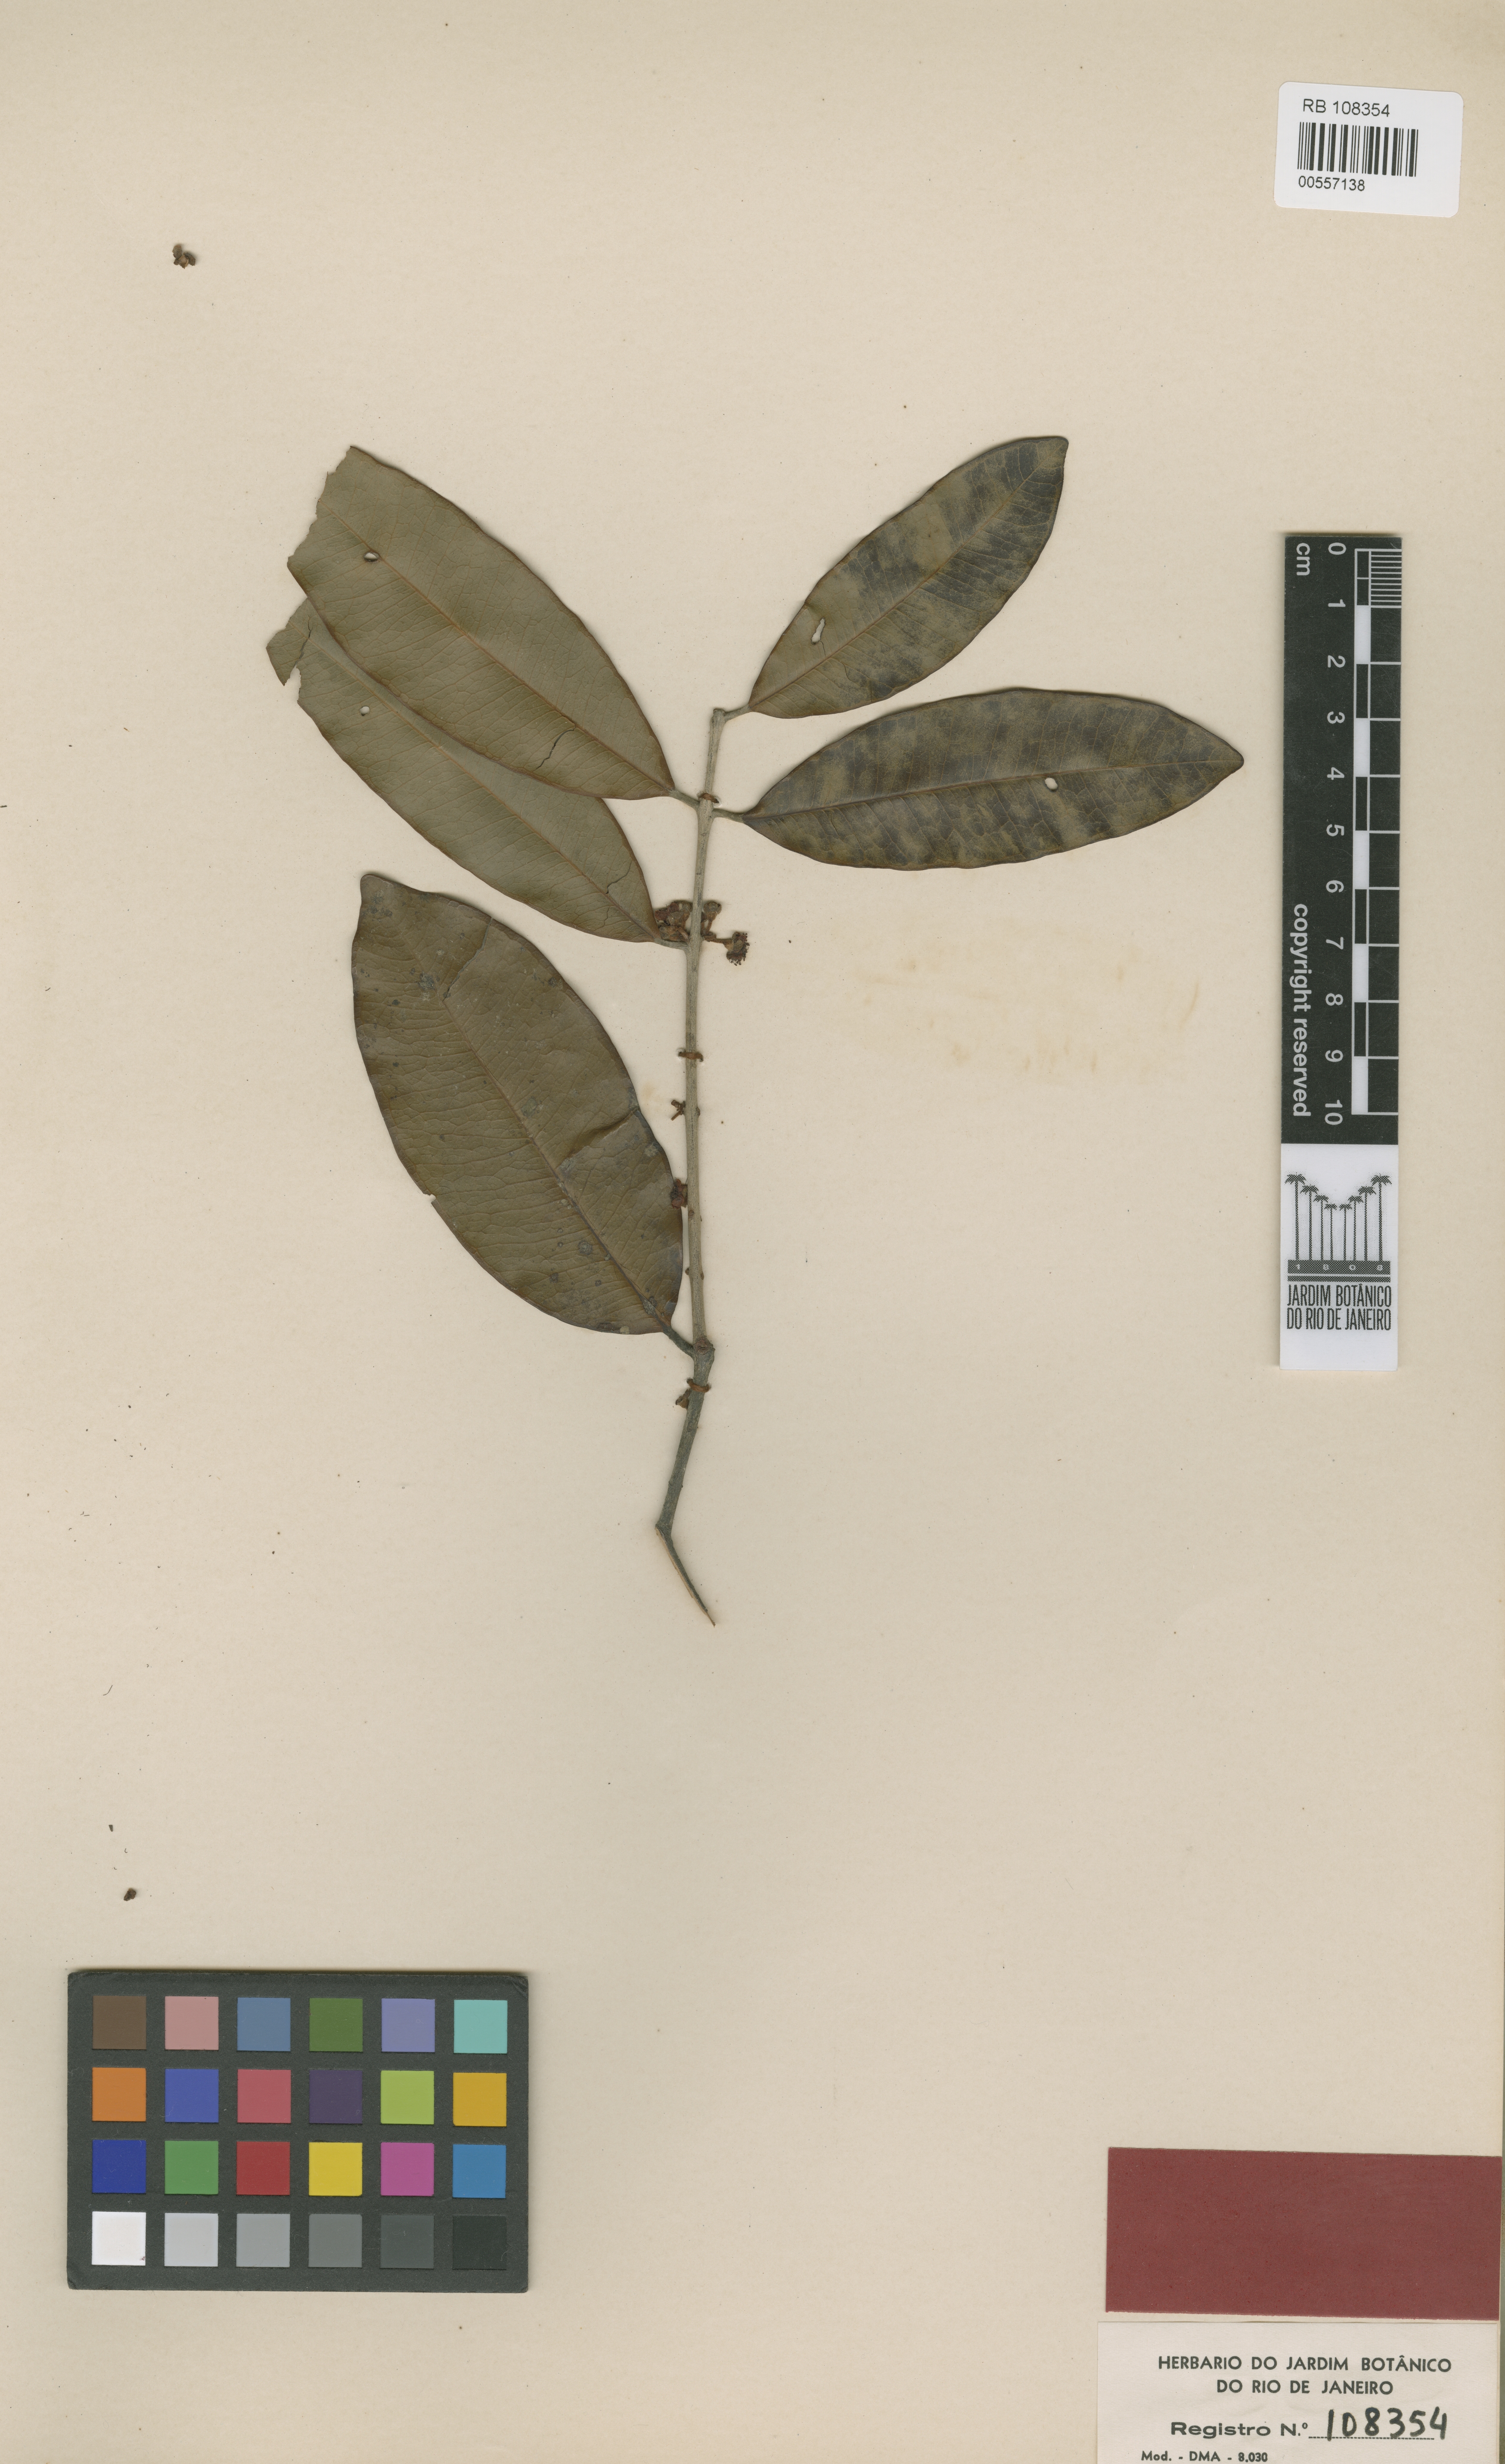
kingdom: Plantae
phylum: Tracheophyta
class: Magnoliopsida
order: Myrtales
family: Myrtaceae
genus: Eugenia
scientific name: Eugenia chrysophyllum
